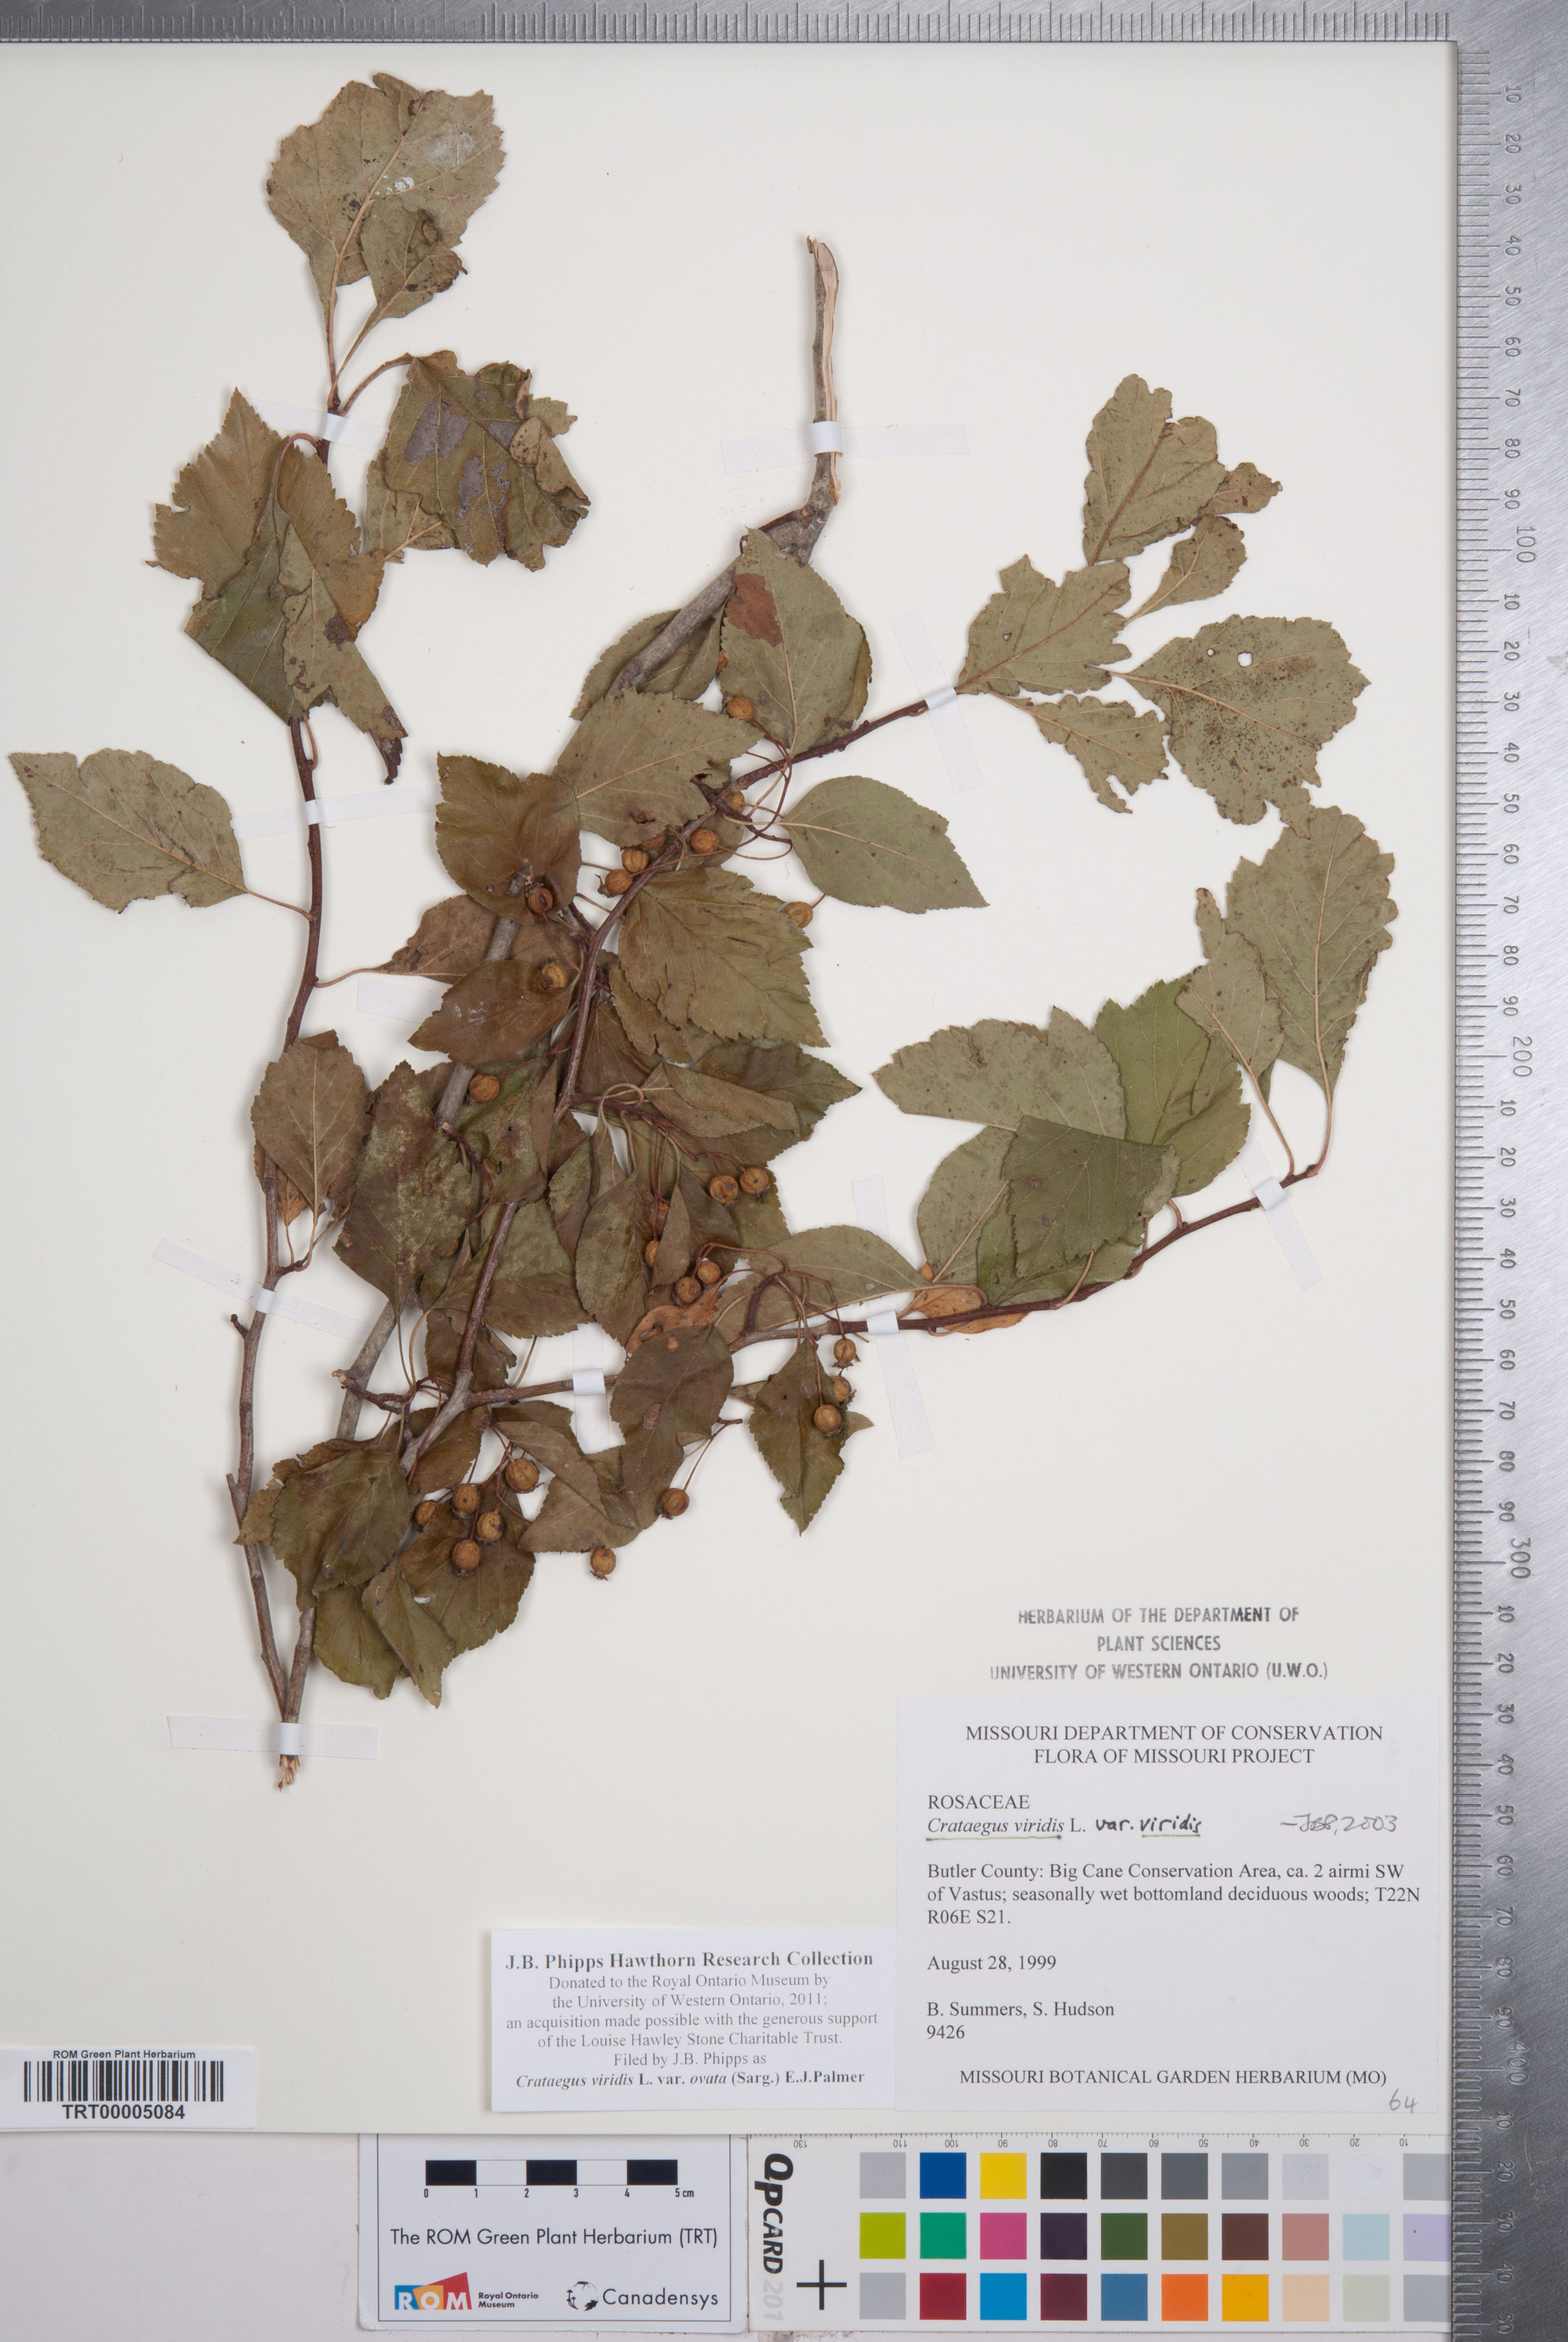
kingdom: Plantae
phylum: Tracheophyta
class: Magnoliopsida
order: Rosales
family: Rosaceae
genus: Crataegus
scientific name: Crataegus viridis
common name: Southernthorn
